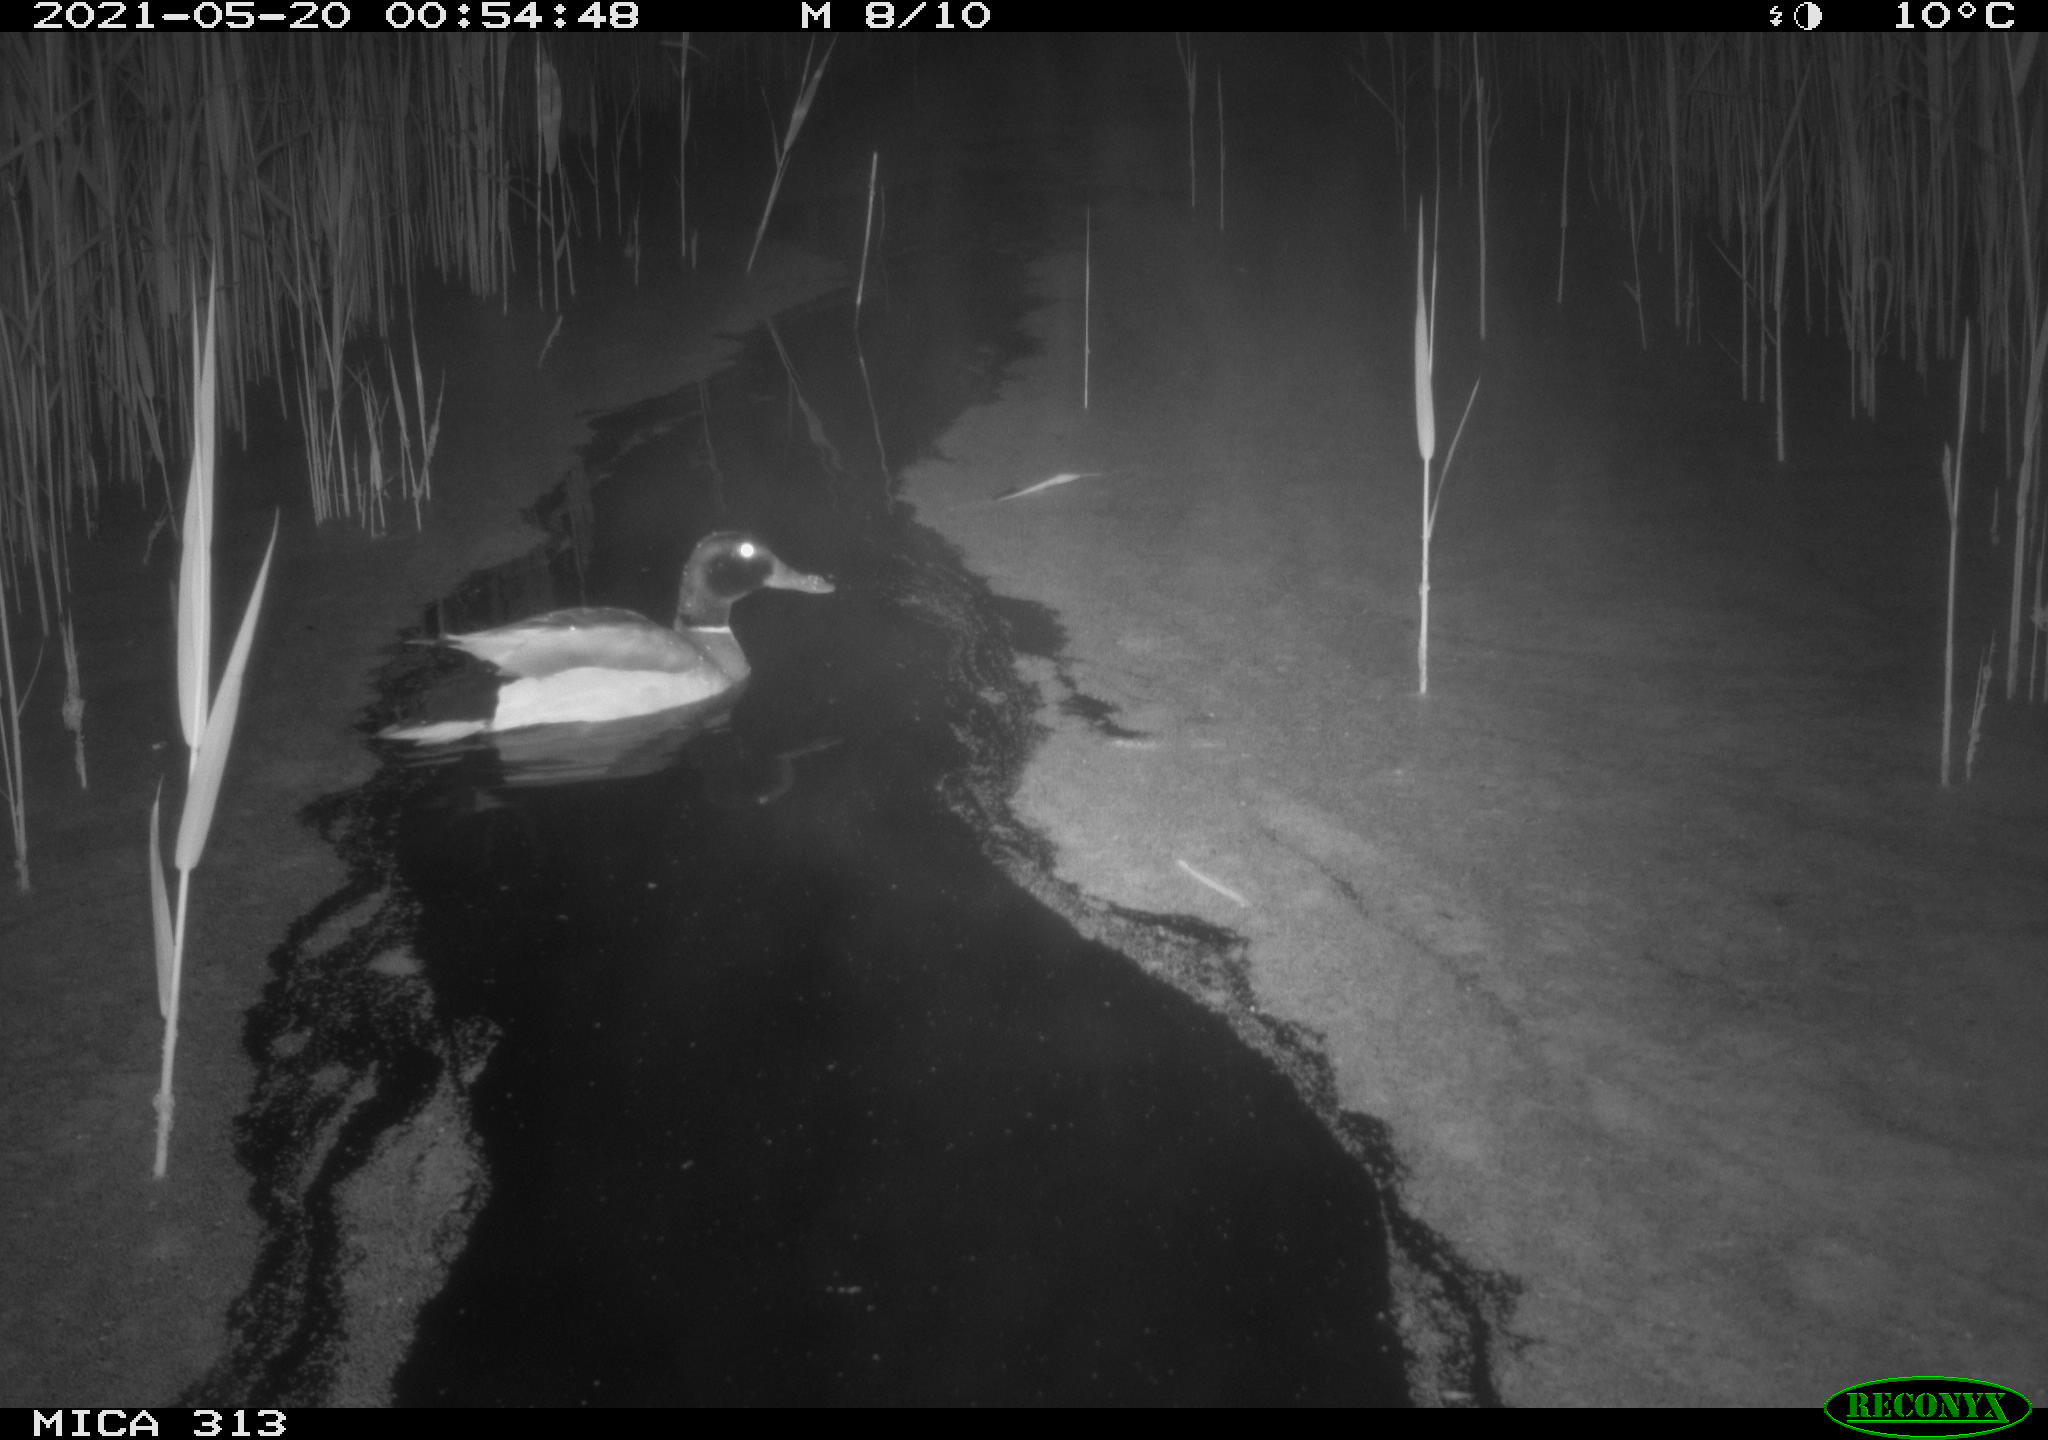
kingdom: Animalia
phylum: Chordata
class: Aves
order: Anseriformes
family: Anatidae
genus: Anas
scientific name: Anas platyrhynchos
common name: Mallard
